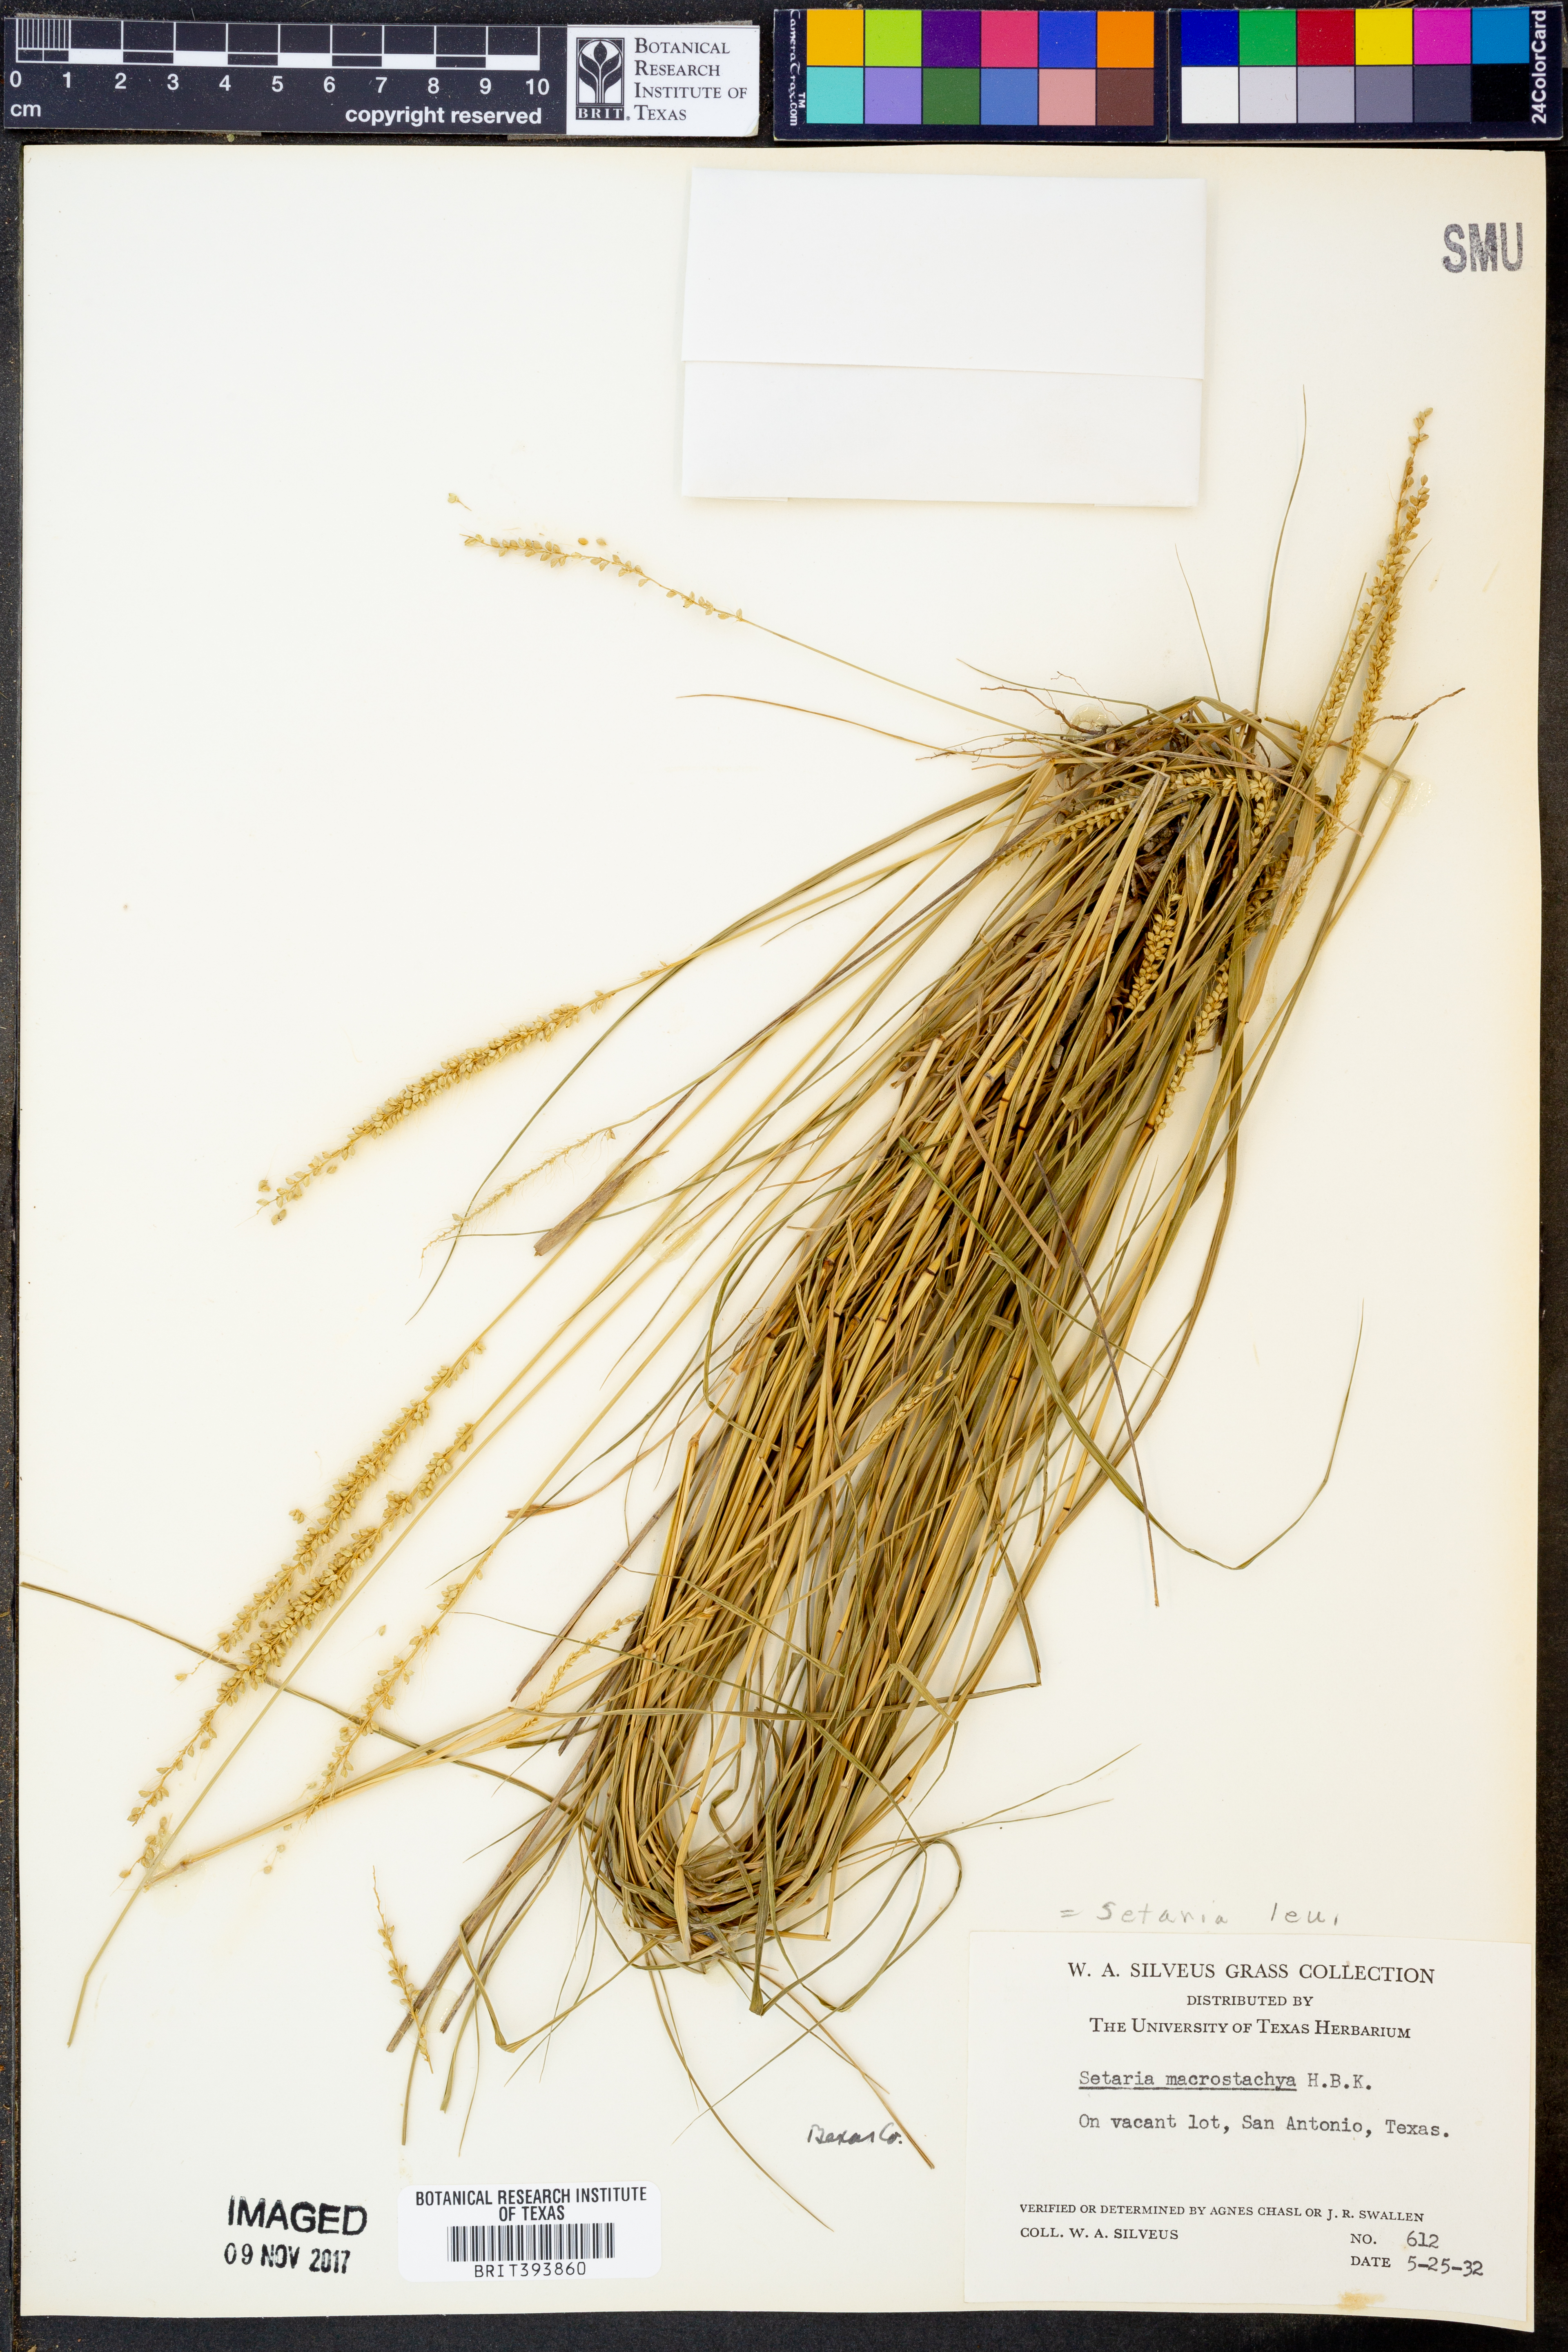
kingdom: Plantae
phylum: Tracheophyta
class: Liliopsida
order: Poales
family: Poaceae
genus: Setaria
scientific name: Setaria leucopila
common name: Plains bristle grass
